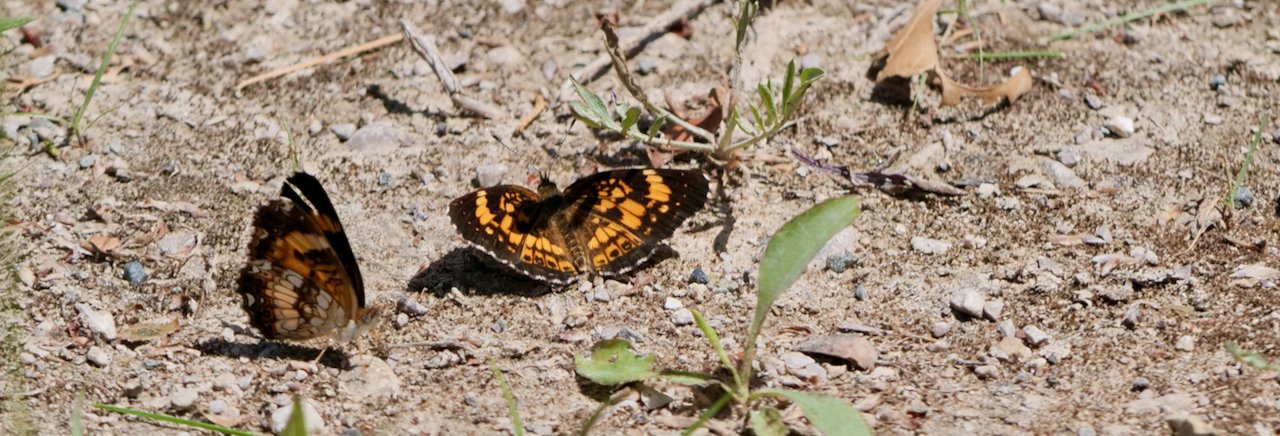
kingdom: Animalia
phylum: Arthropoda
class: Insecta
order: Lepidoptera
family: Nymphalidae
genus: Chlosyne
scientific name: Chlosyne nycteis
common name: Silvery Checkerspot
